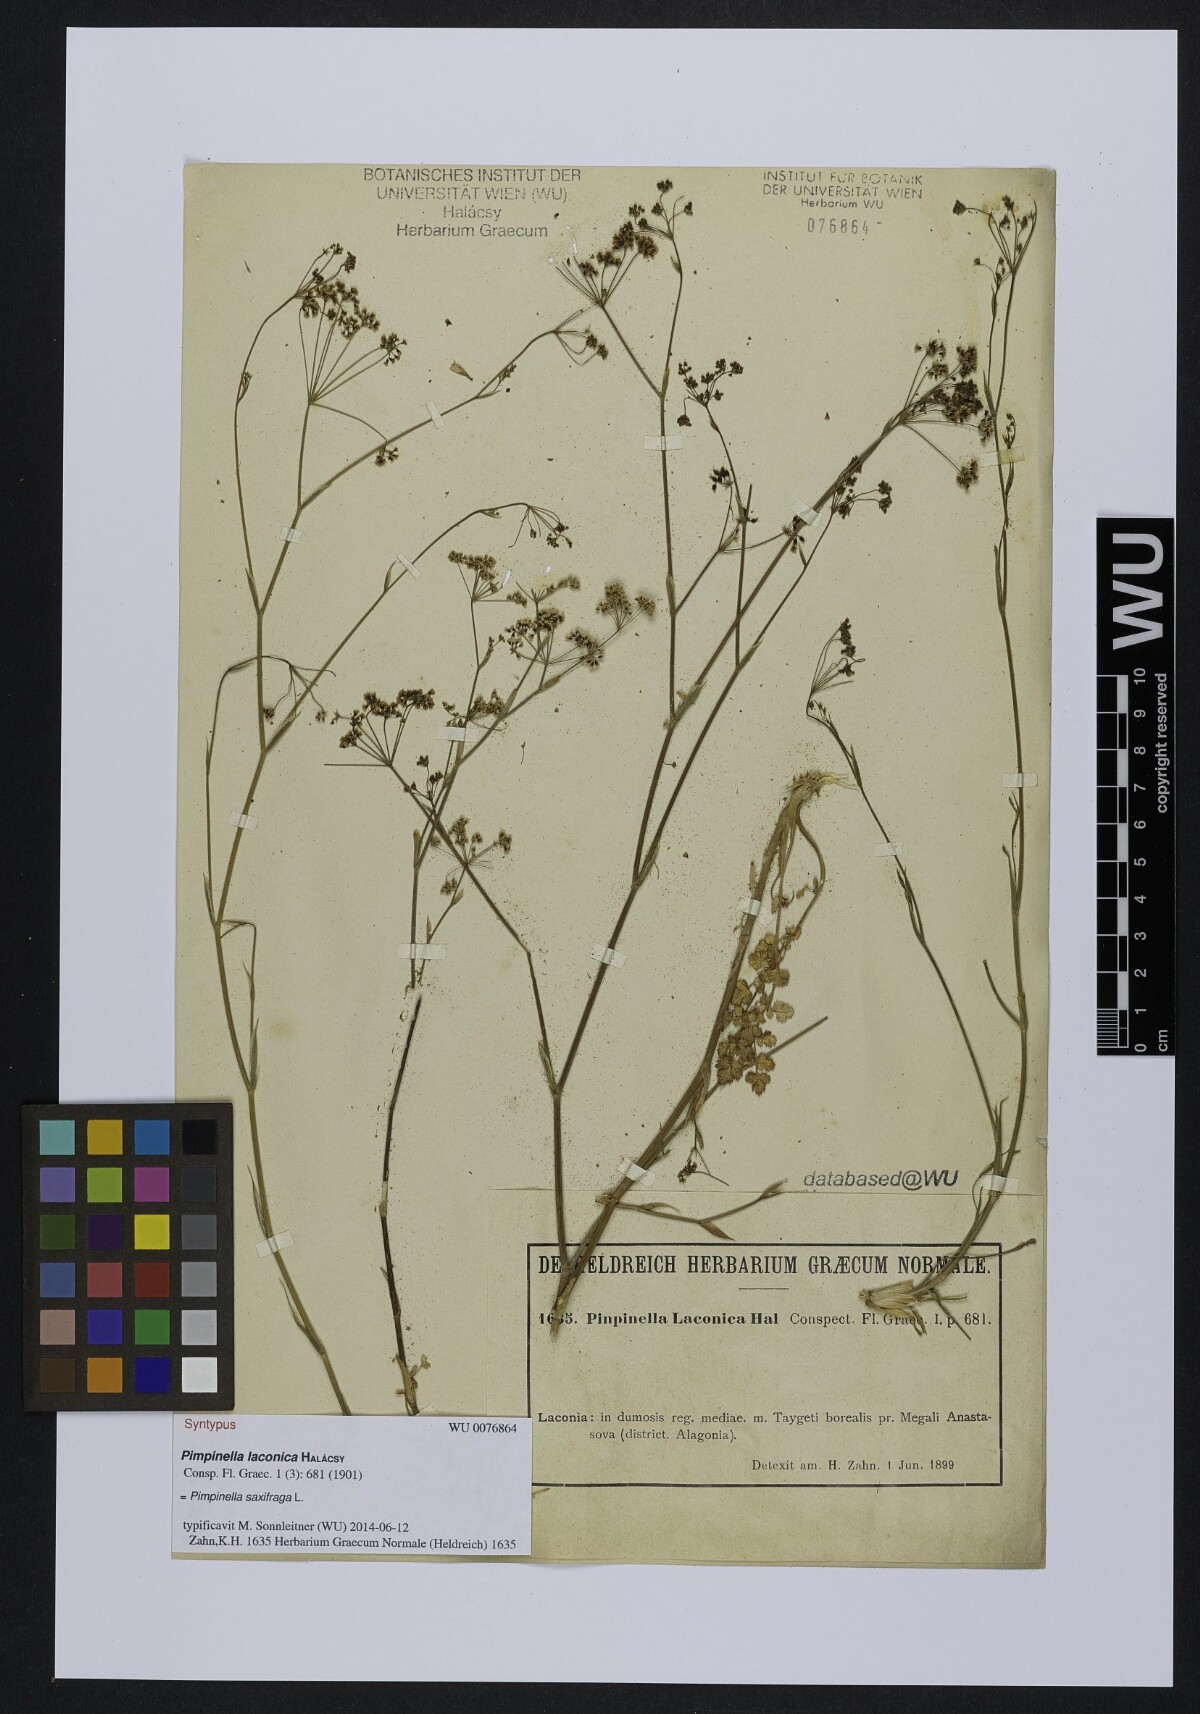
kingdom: Plantae
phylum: Tracheophyta
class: Magnoliopsida
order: Apiales
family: Apiaceae
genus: Pimpinella
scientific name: Pimpinella saxifraga
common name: Burnet-saxifrage
